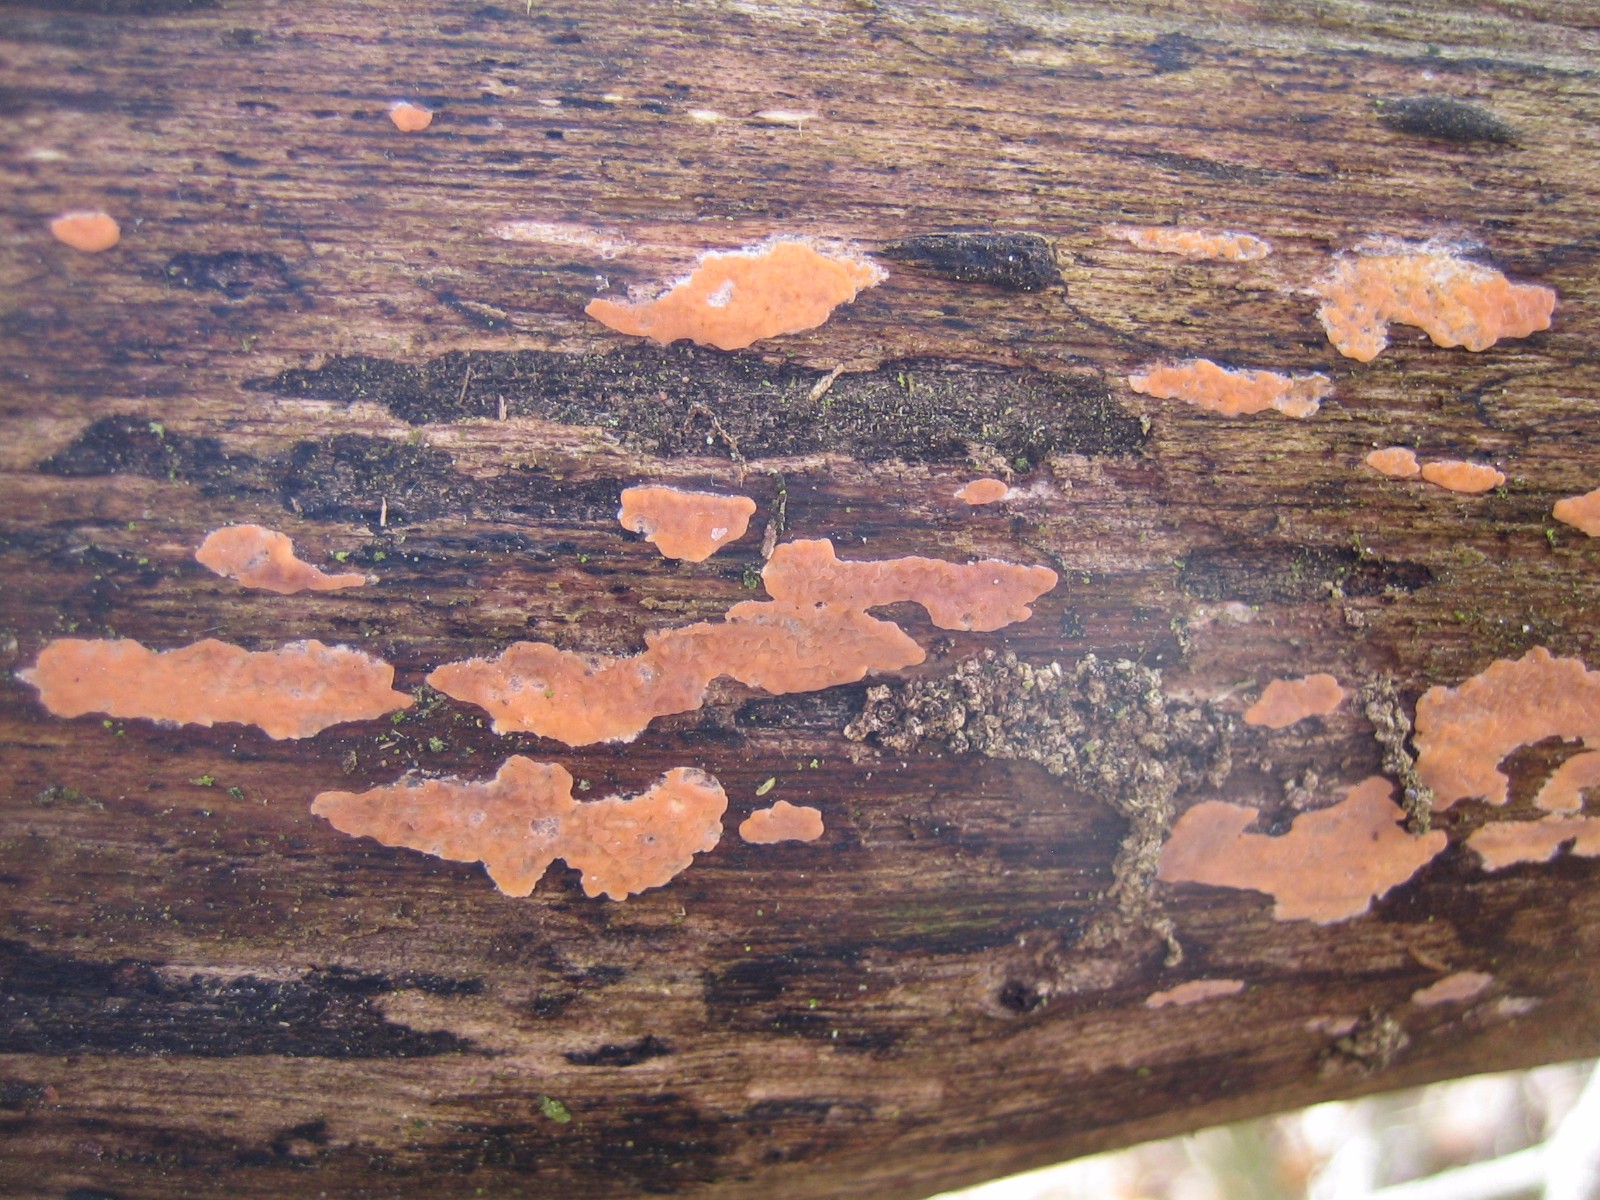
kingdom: Fungi
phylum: Basidiomycota
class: Agaricomycetes
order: Russulales
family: Peniophoraceae
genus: Peniophora
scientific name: Peniophora incarnata
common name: laksefarvet voksskind
